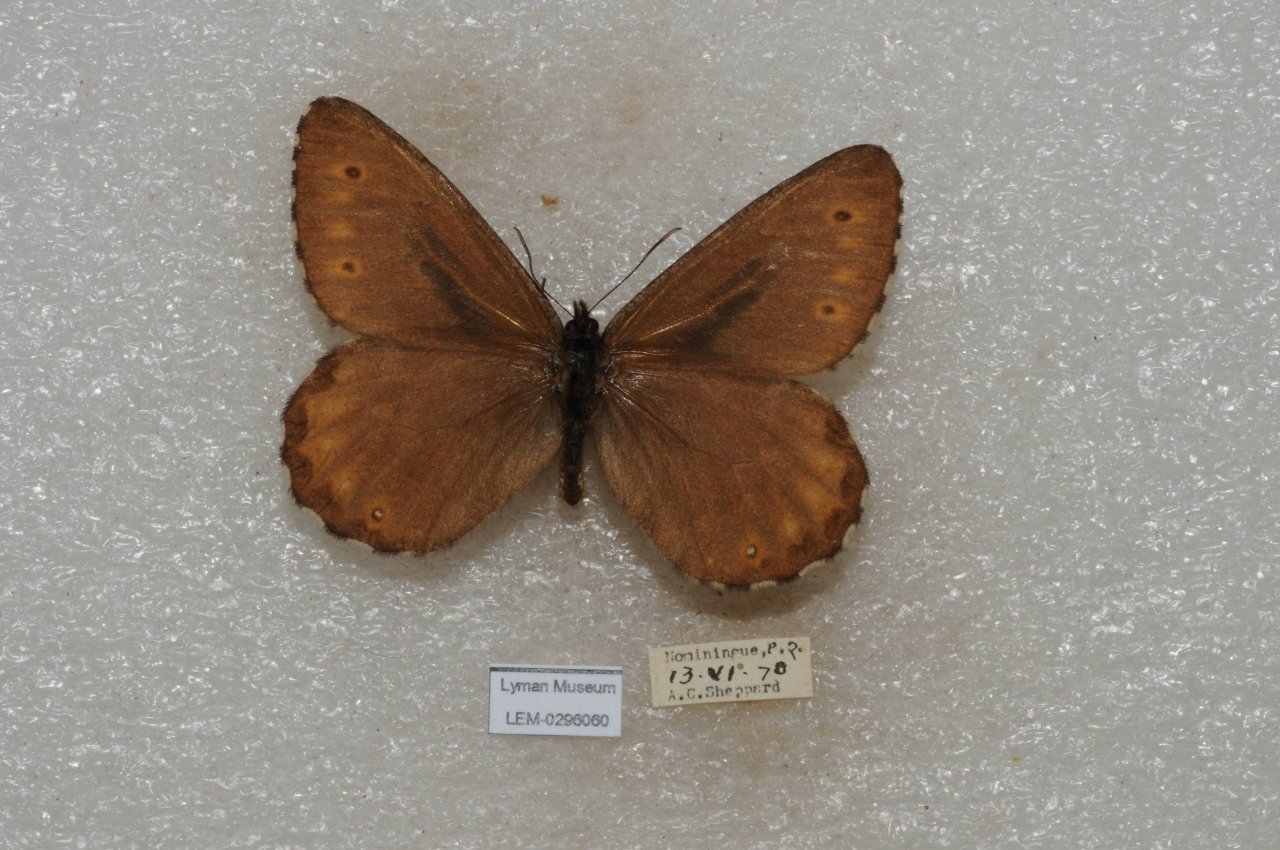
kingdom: Animalia
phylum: Arthropoda
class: Insecta
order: Lepidoptera
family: Nymphalidae
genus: Oeneis
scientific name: Oeneis jutta
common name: Jutta Arctic
